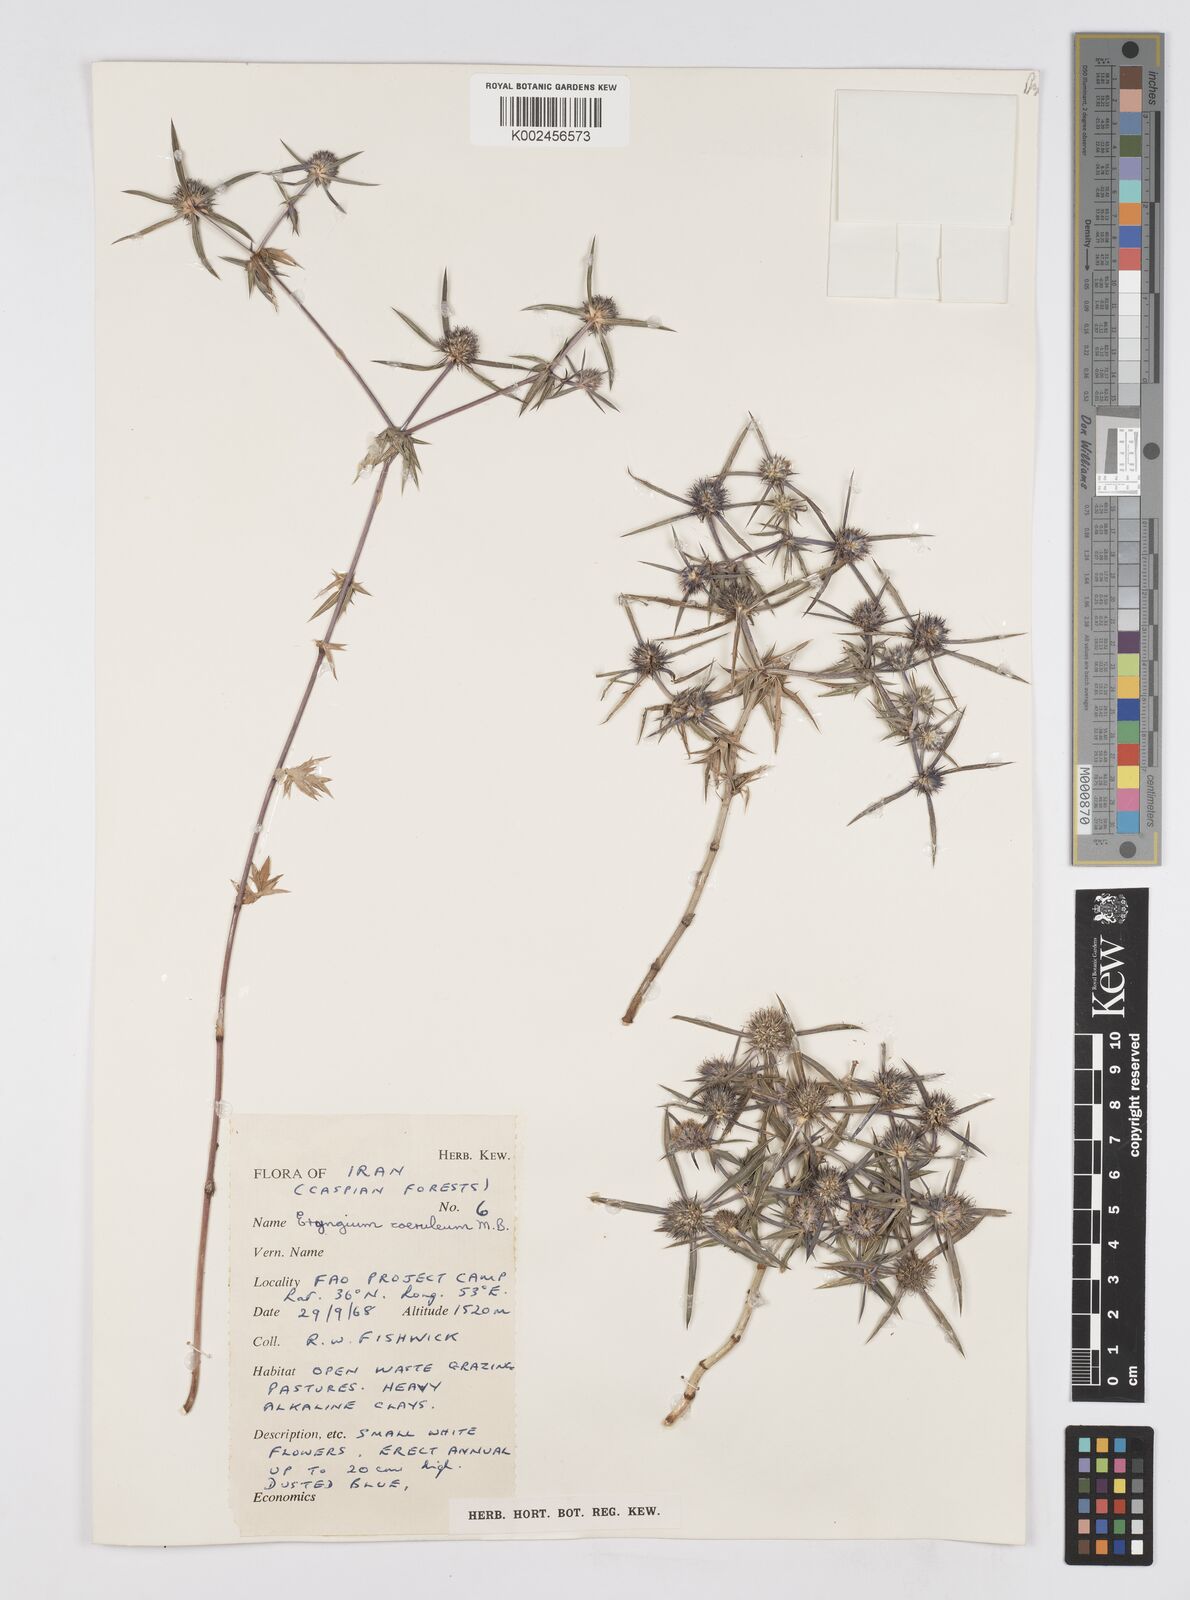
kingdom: Plantae
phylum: Tracheophyta
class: Magnoliopsida
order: Apiales
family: Apiaceae
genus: Eryngium
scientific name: Eryngium caeruleum
